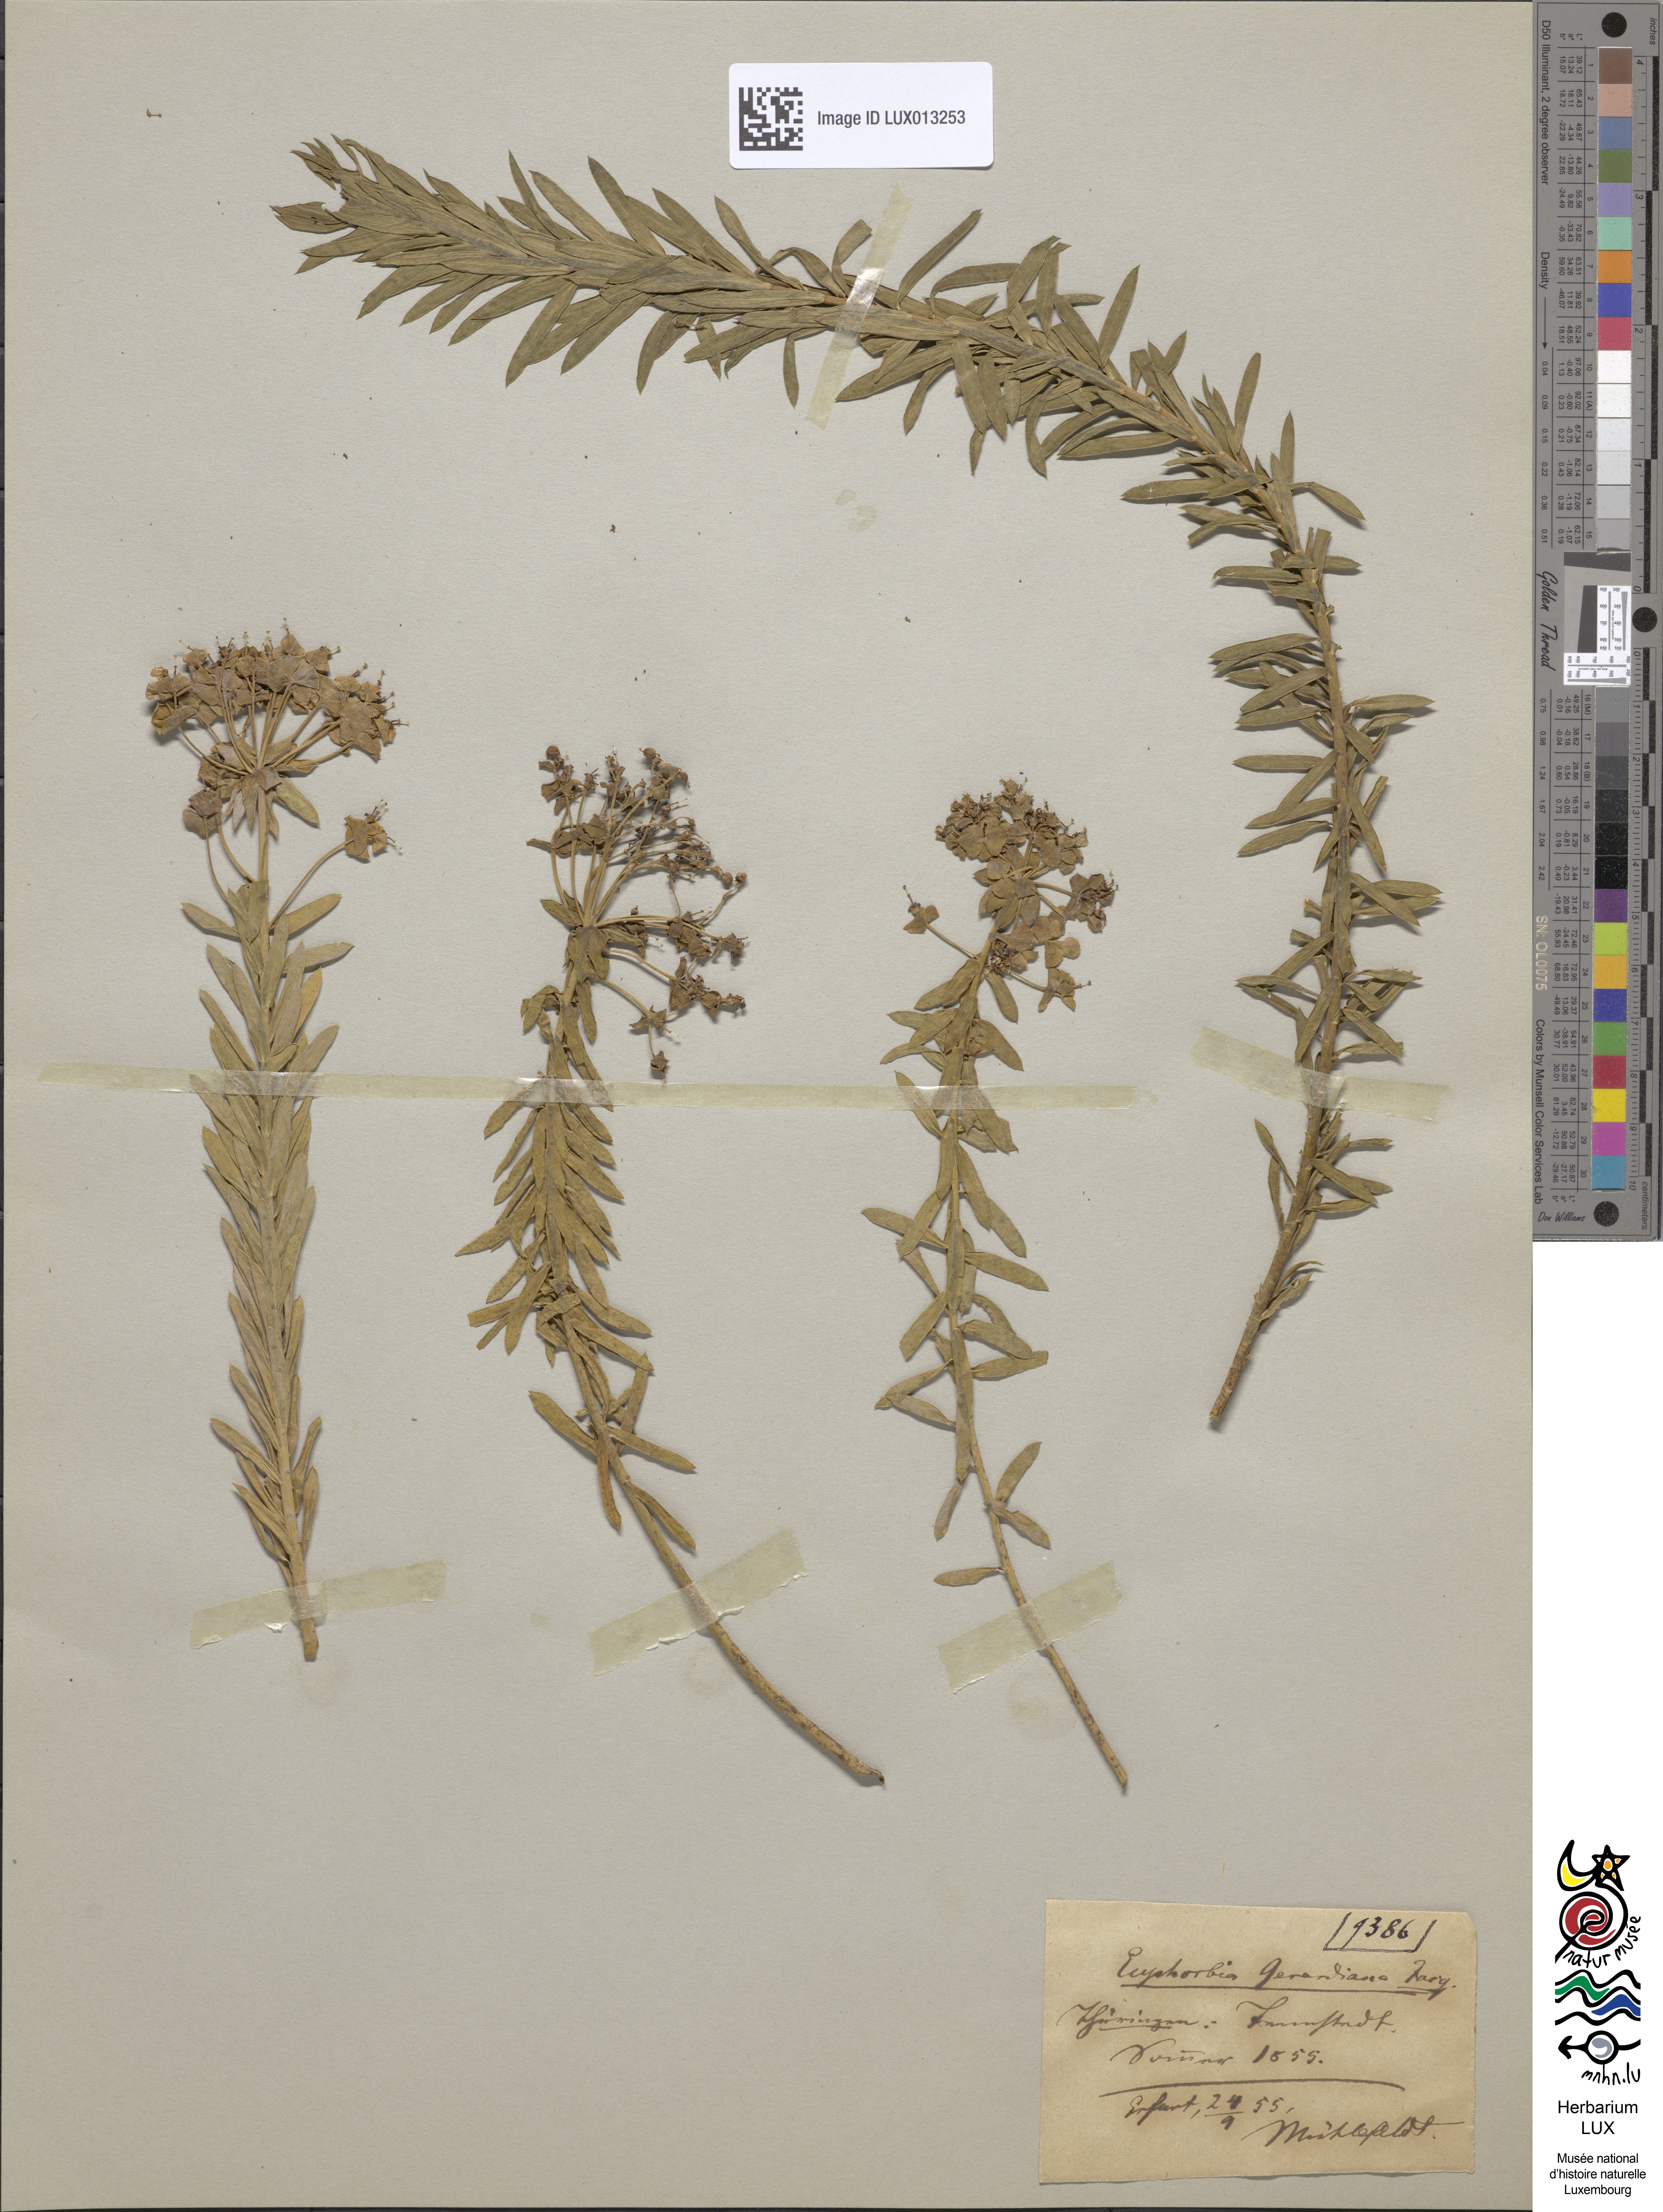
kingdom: Plantae
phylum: Tracheophyta
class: Magnoliopsida
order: Malpighiales
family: Euphorbiaceae
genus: Euphorbia
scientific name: Euphorbia seguieriana
